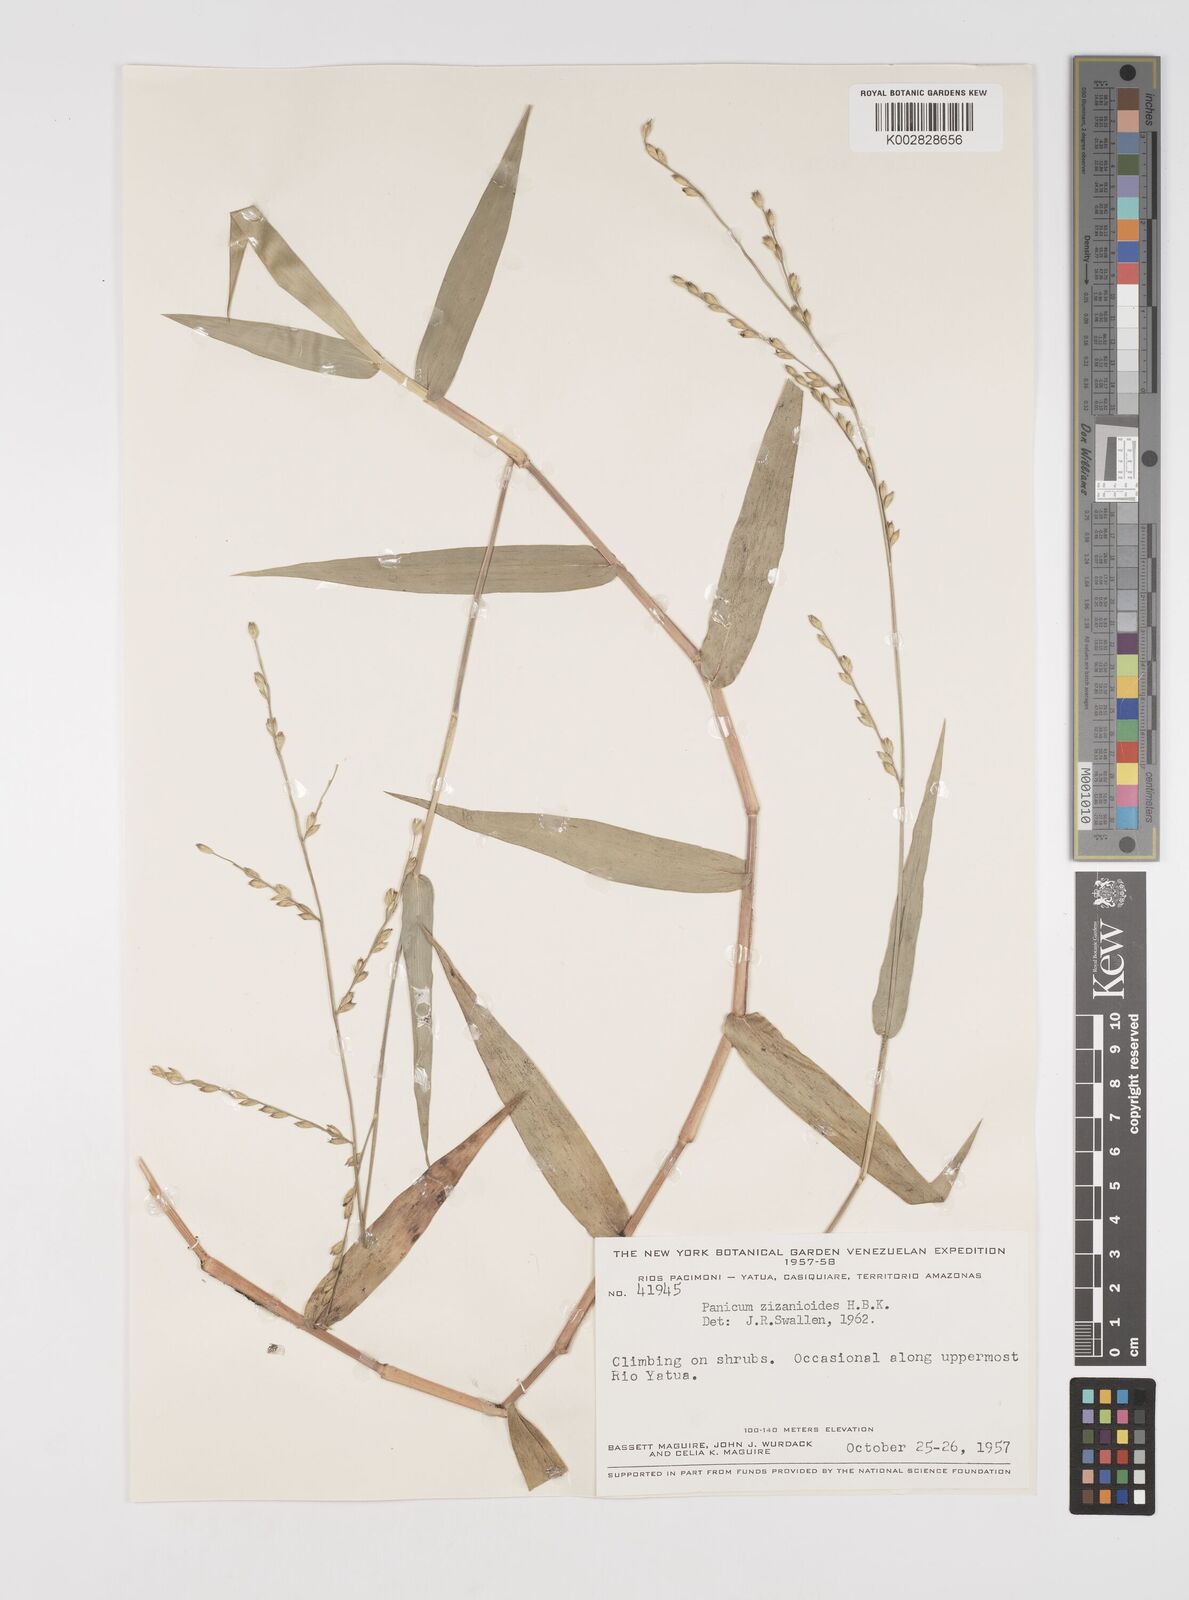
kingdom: Plantae
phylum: Tracheophyta
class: Liliopsida
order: Poales
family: Poaceae
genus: Acroceras
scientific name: Acroceras zizanioides
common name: Oat grass
